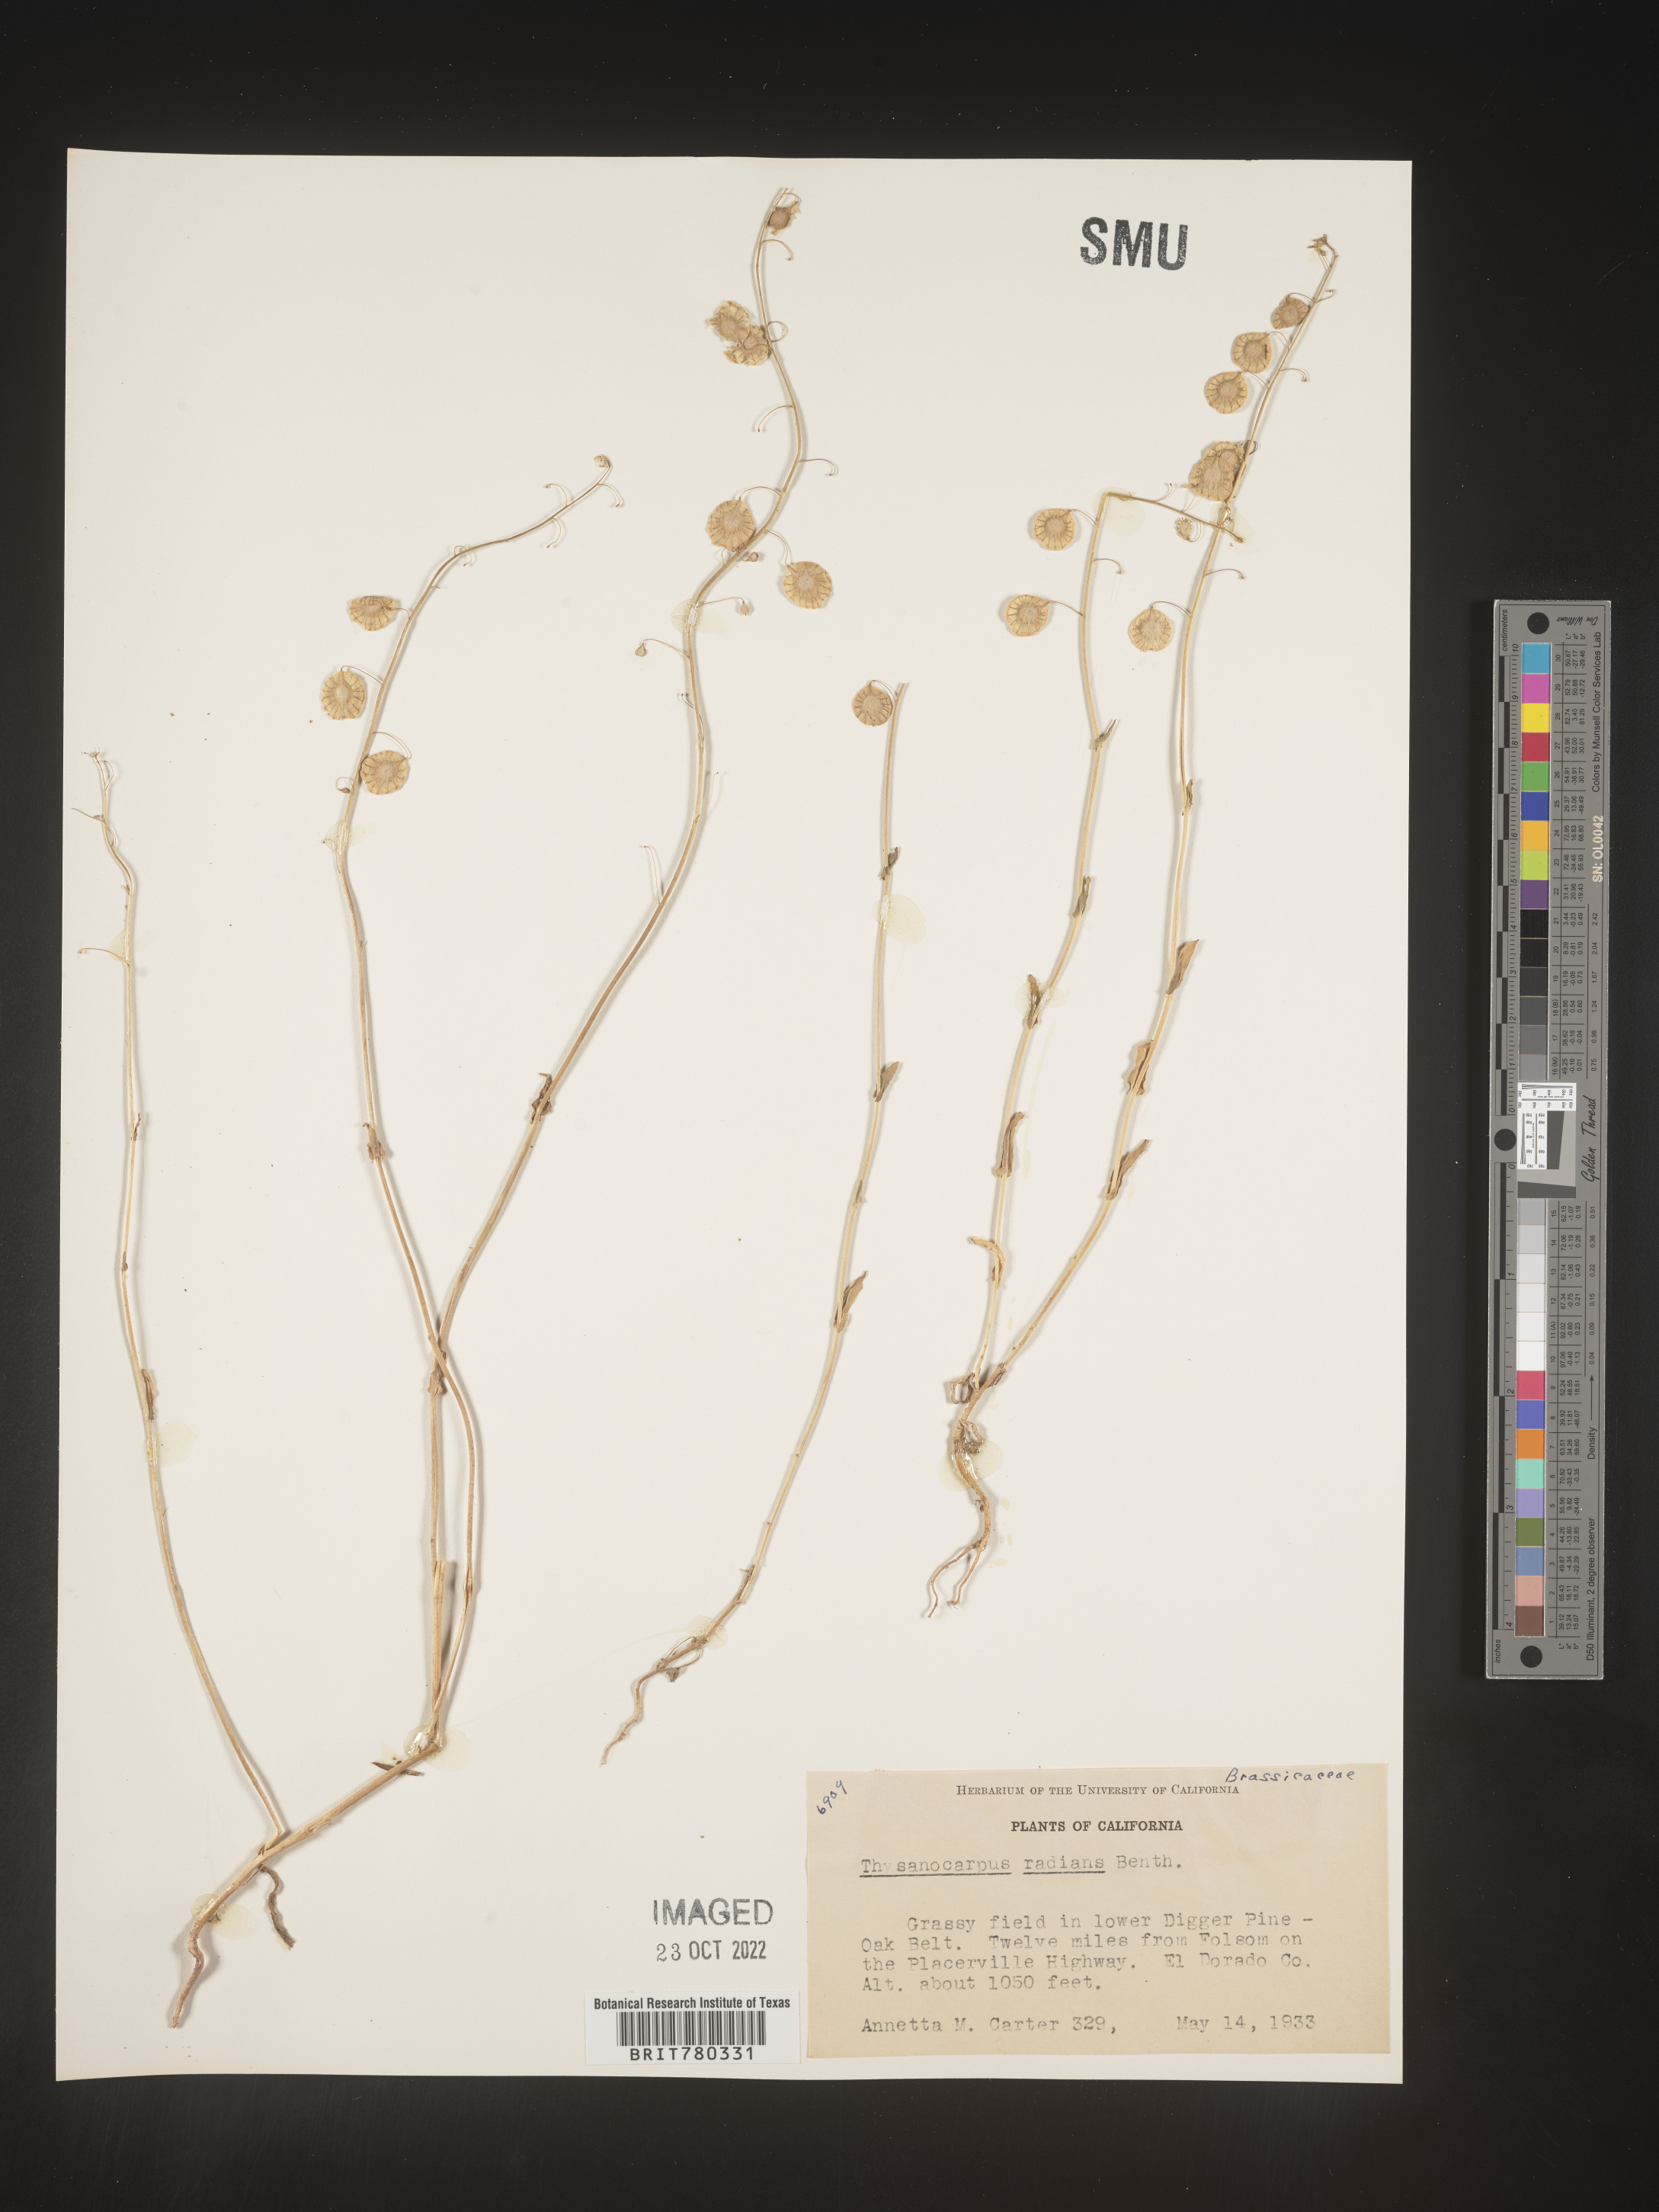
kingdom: Plantae
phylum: Tracheophyta
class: Magnoliopsida
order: Brassicales
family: Brassicaceae
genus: Thysanocarpus
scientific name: Thysanocarpus
